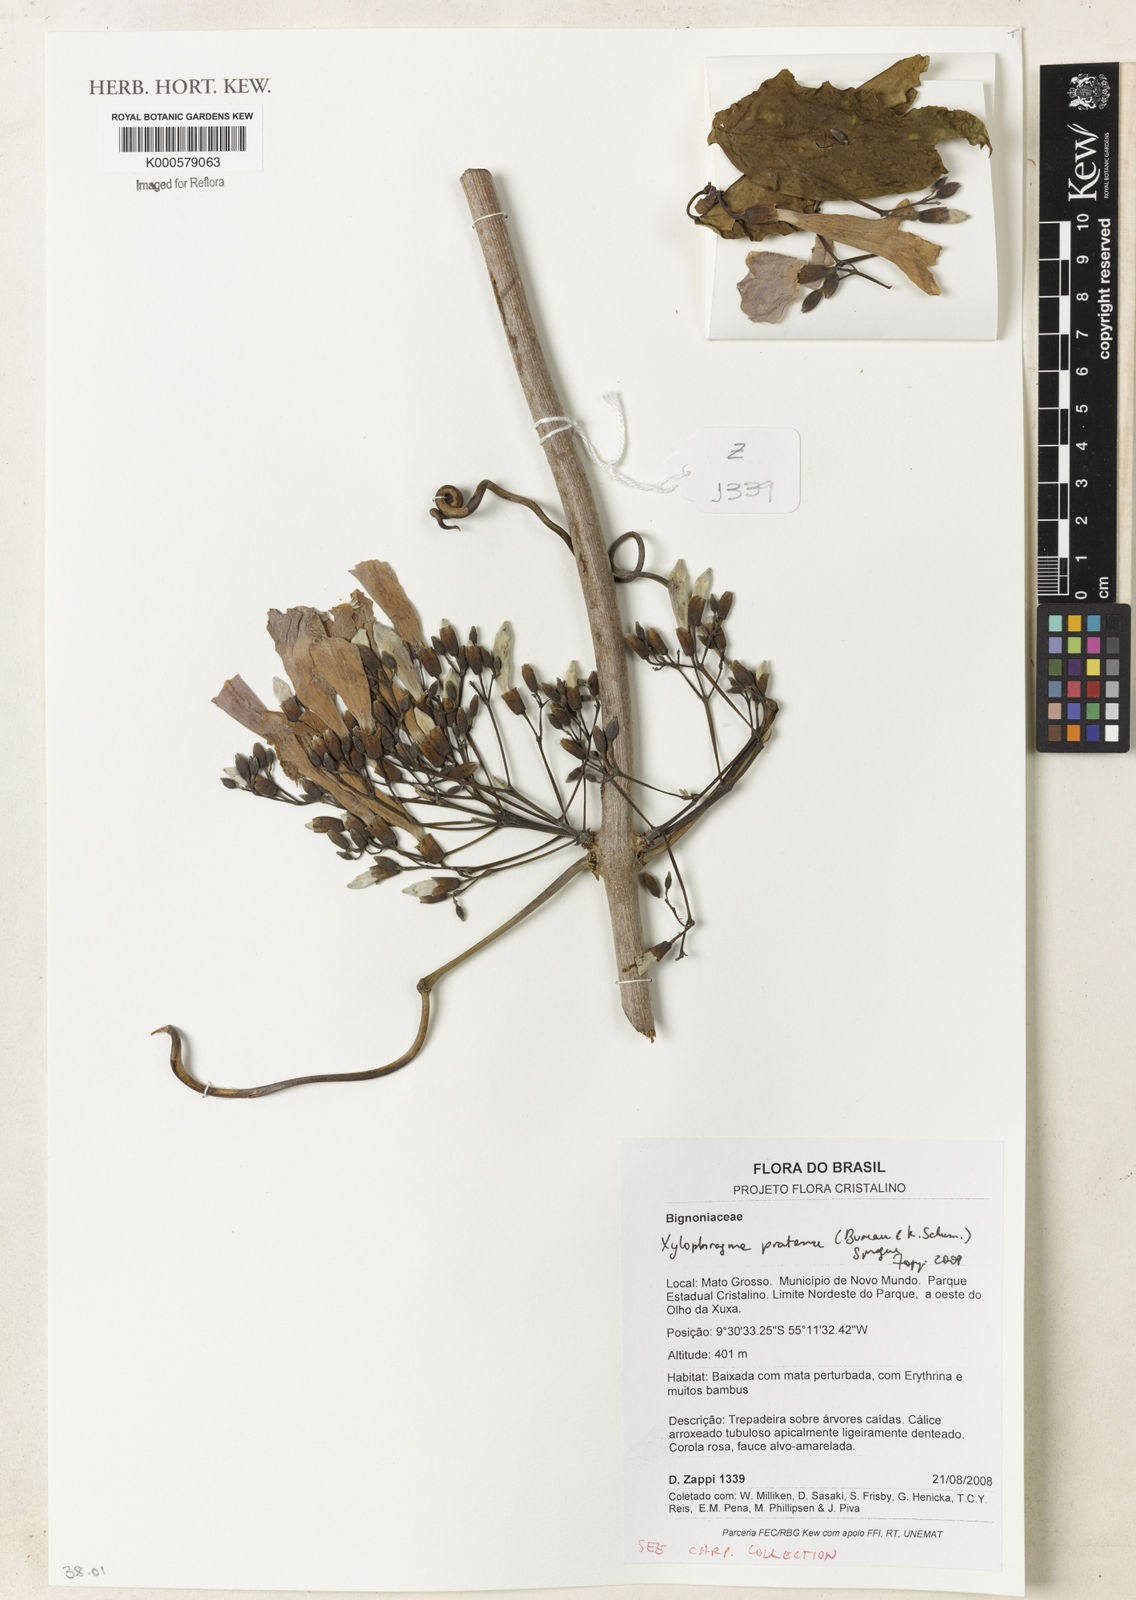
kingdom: Plantae
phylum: Tracheophyta
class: Magnoliopsida
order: Lamiales
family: Bignoniaceae
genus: Xylophragma
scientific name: Xylophragma pratense
